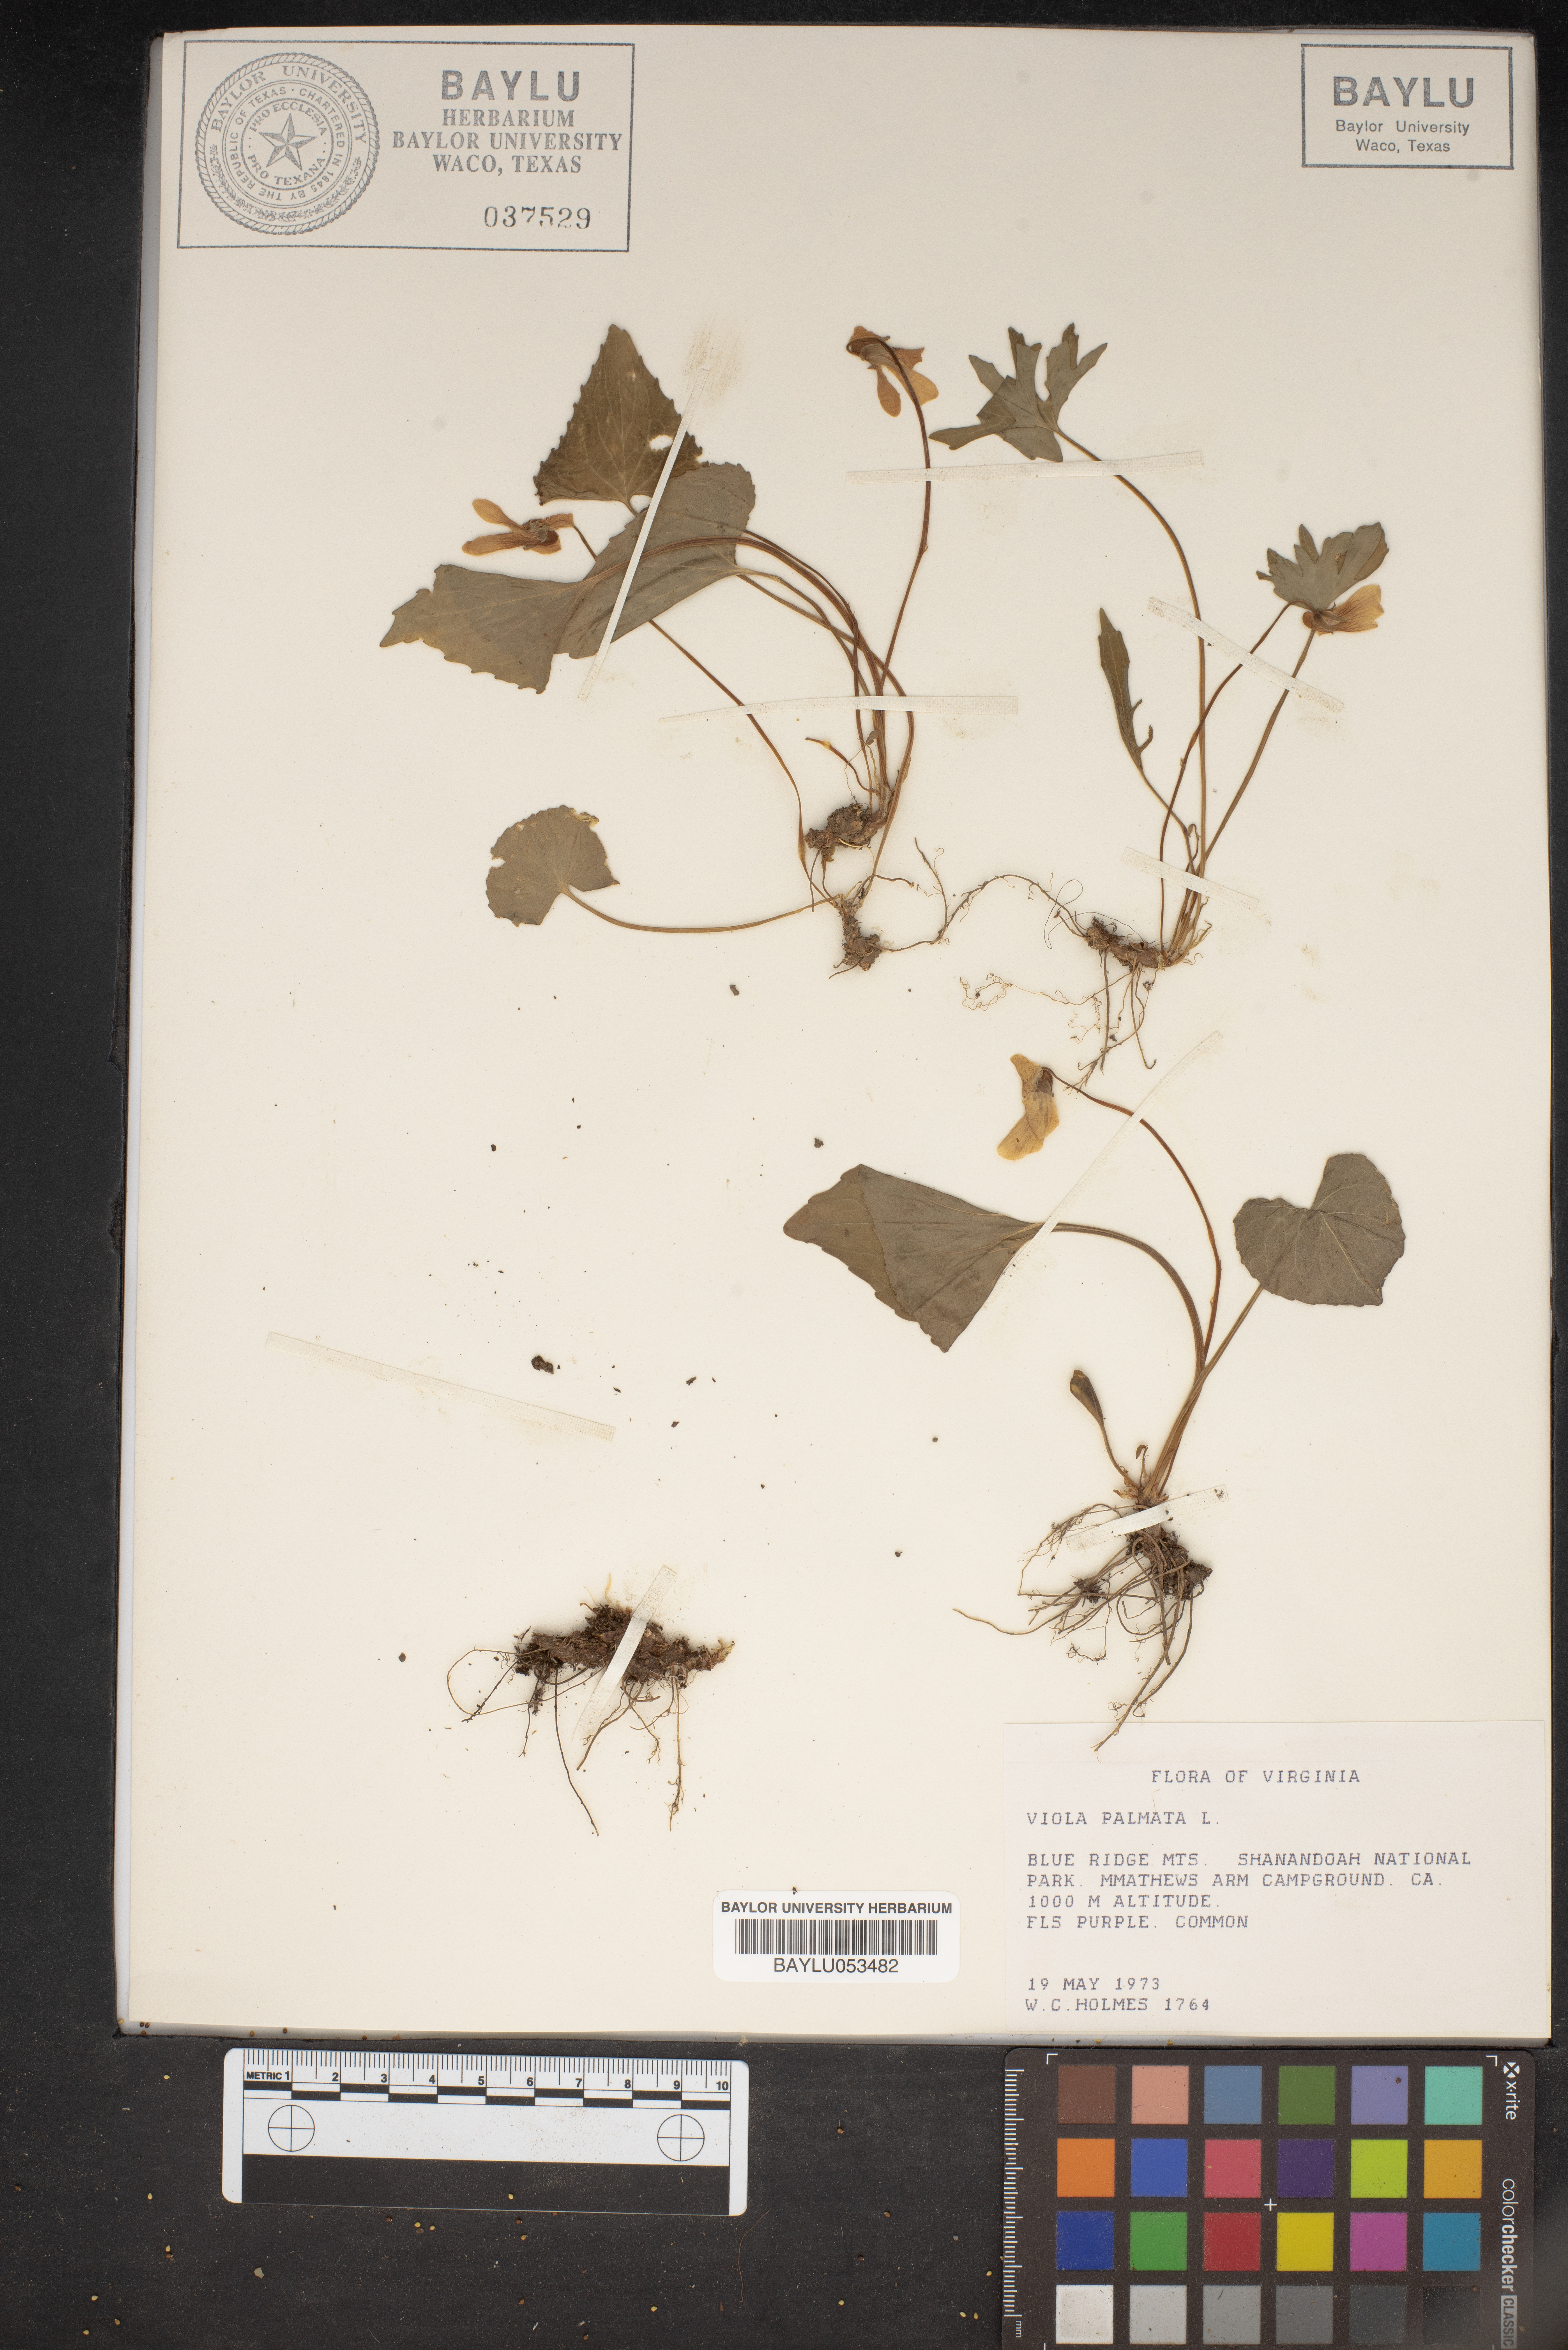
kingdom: Plantae
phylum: Tracheophyta
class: Magnoliopsida
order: Malpighiales
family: Violaceae
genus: Viola
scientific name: Viola palmata
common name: Early blue violet
